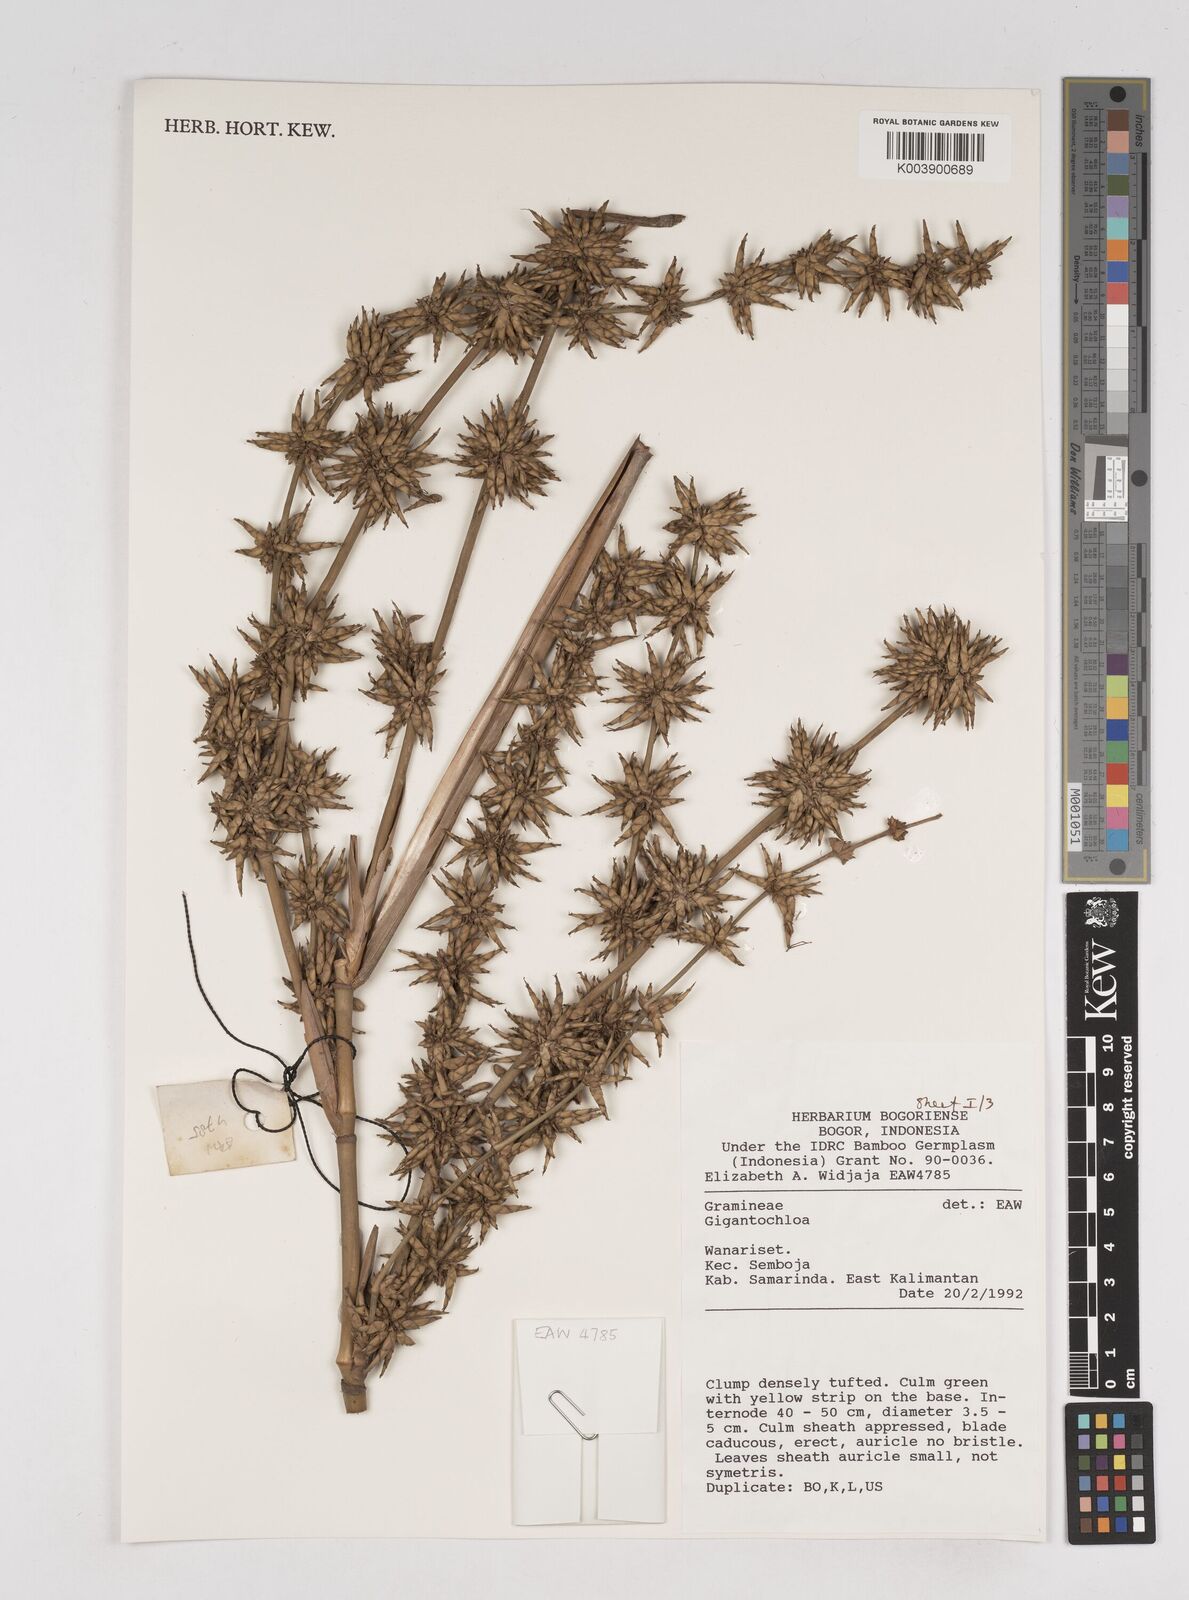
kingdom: Plantae
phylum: Tracheophyta
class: Liliopsida
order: Poales
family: Poaceae
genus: Gigantochloa
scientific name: Gigantochloa
